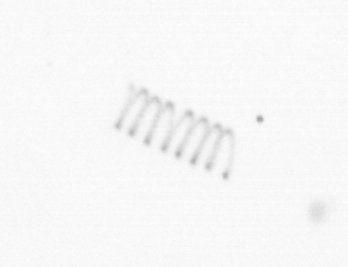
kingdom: Chromista
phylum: Ochrophyta
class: Bacillariophyceae
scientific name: Bacillariophyceae
